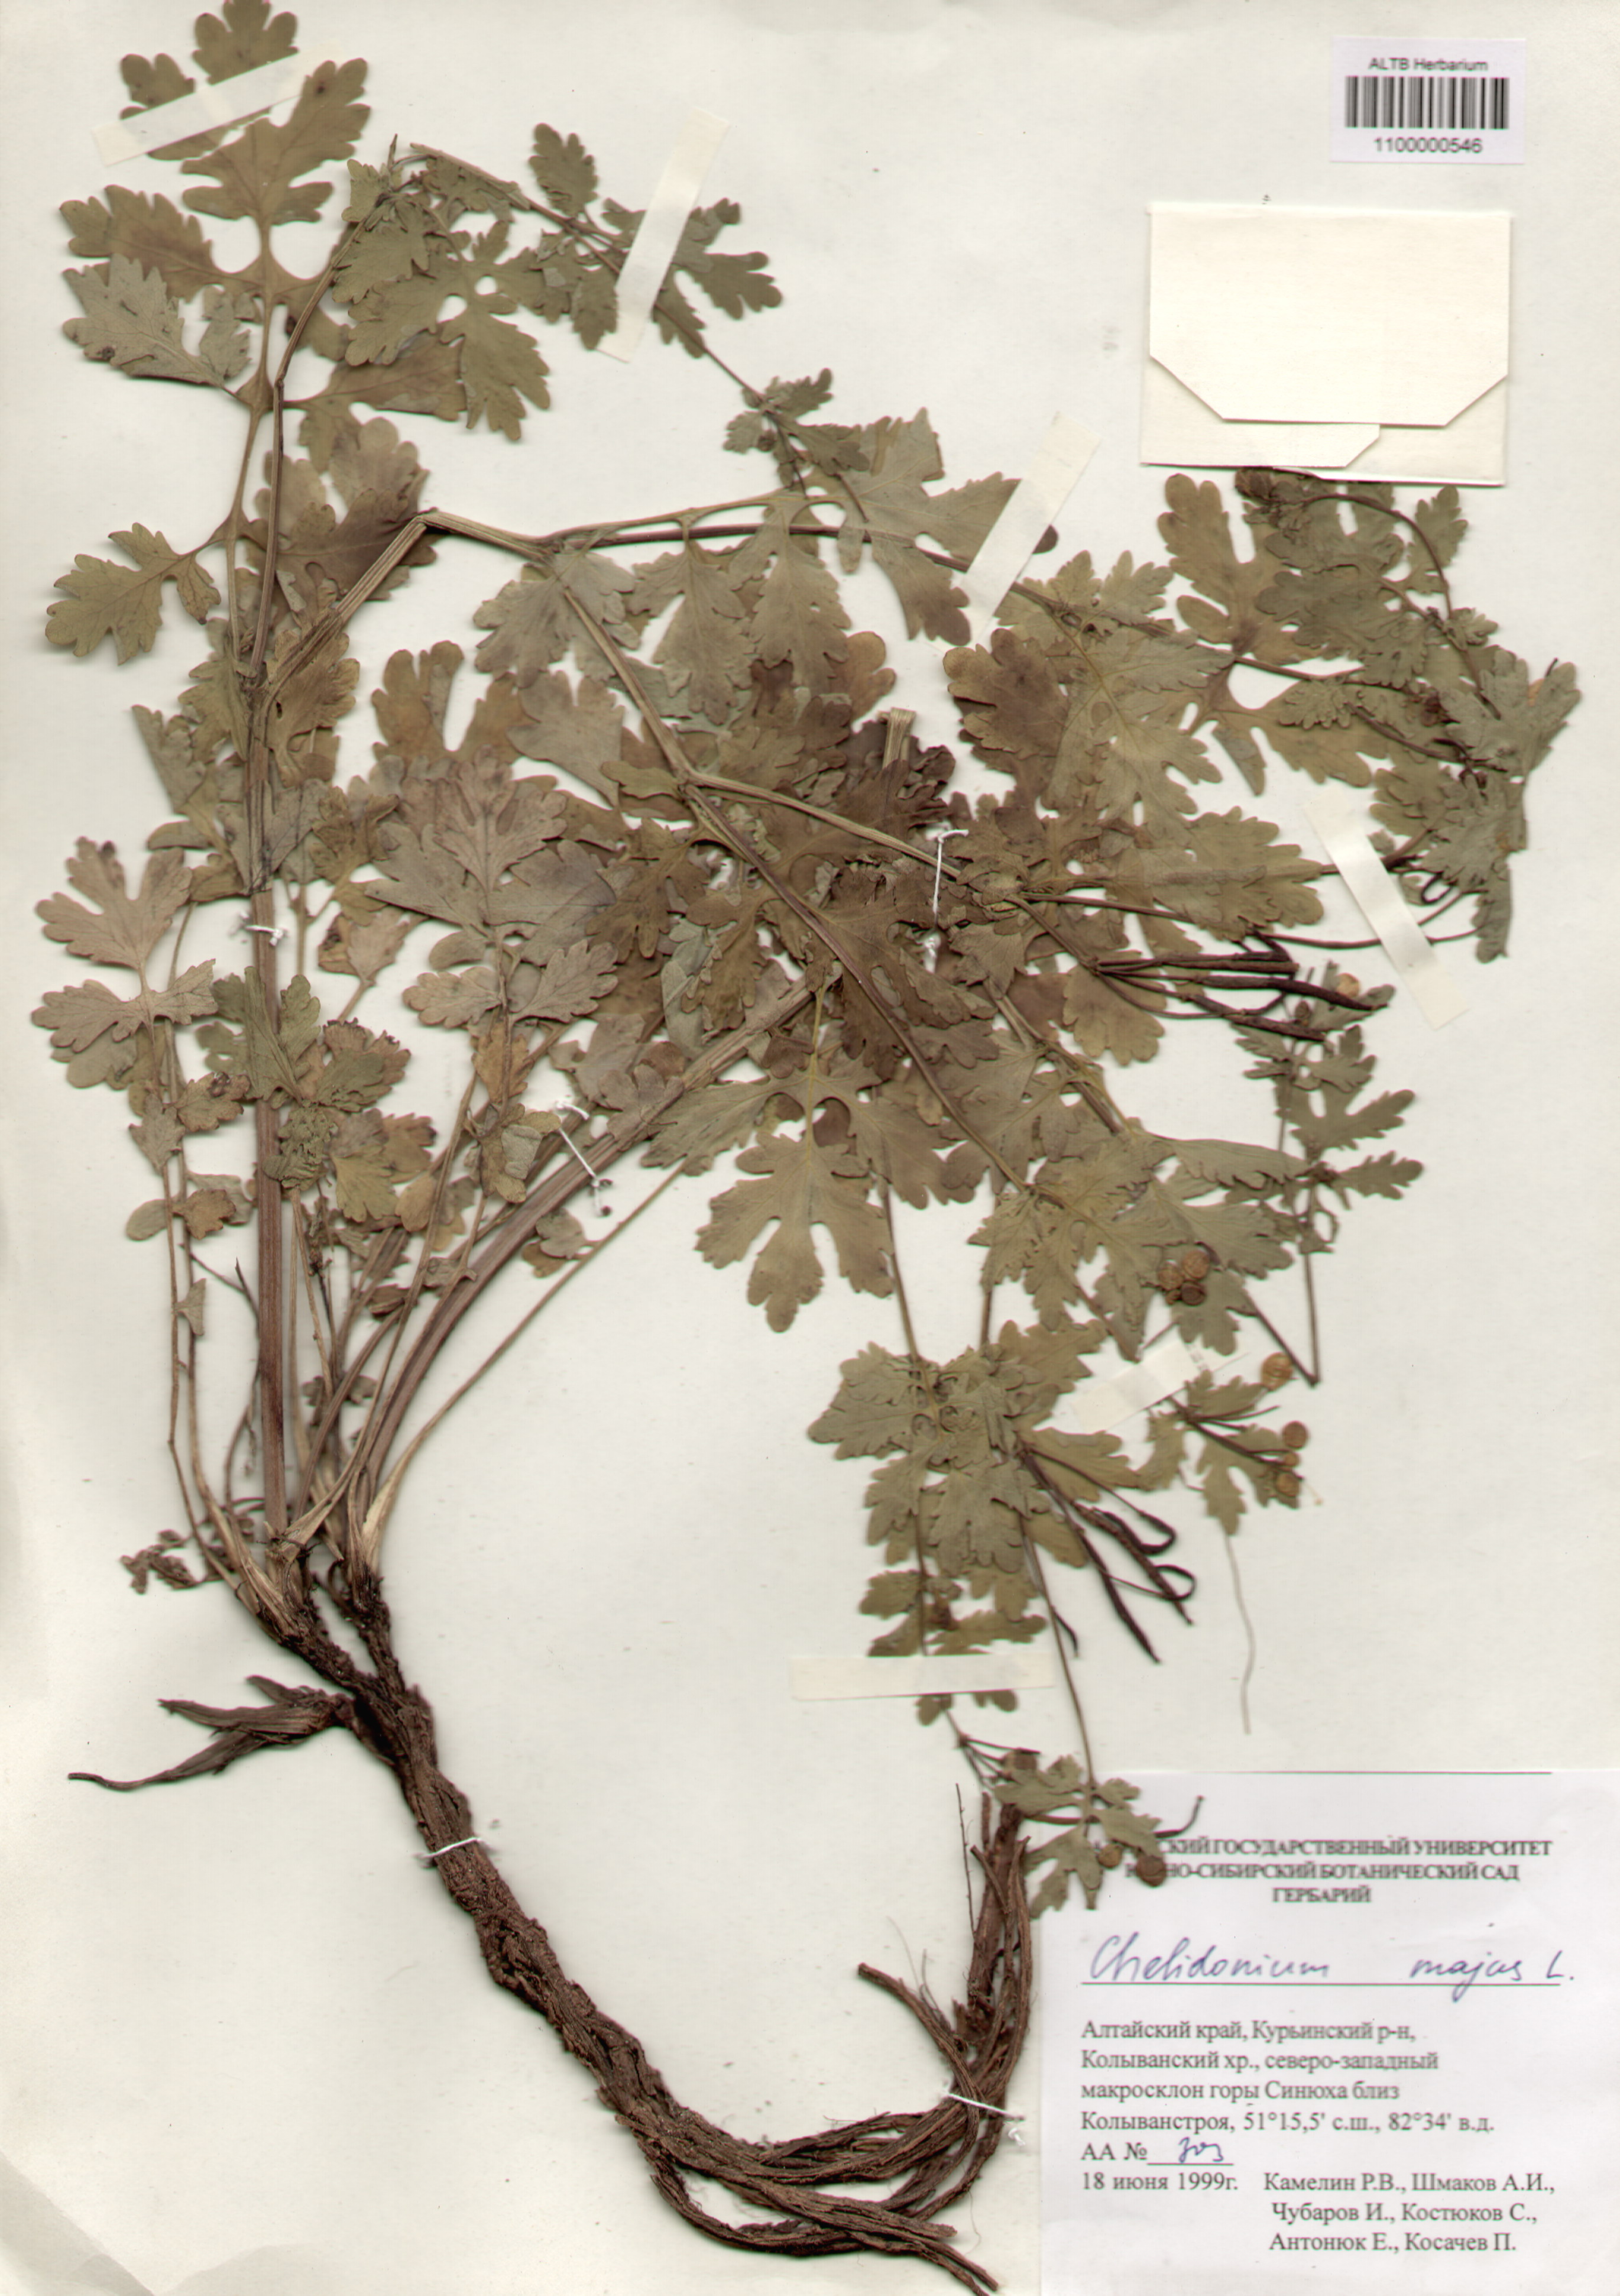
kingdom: Plantae
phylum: Tracheophyta
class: Magnoliopsida
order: Ranunculales
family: Papaveraceae
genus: Chelidonium
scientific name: Chelidonium majus
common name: Greater celandine
